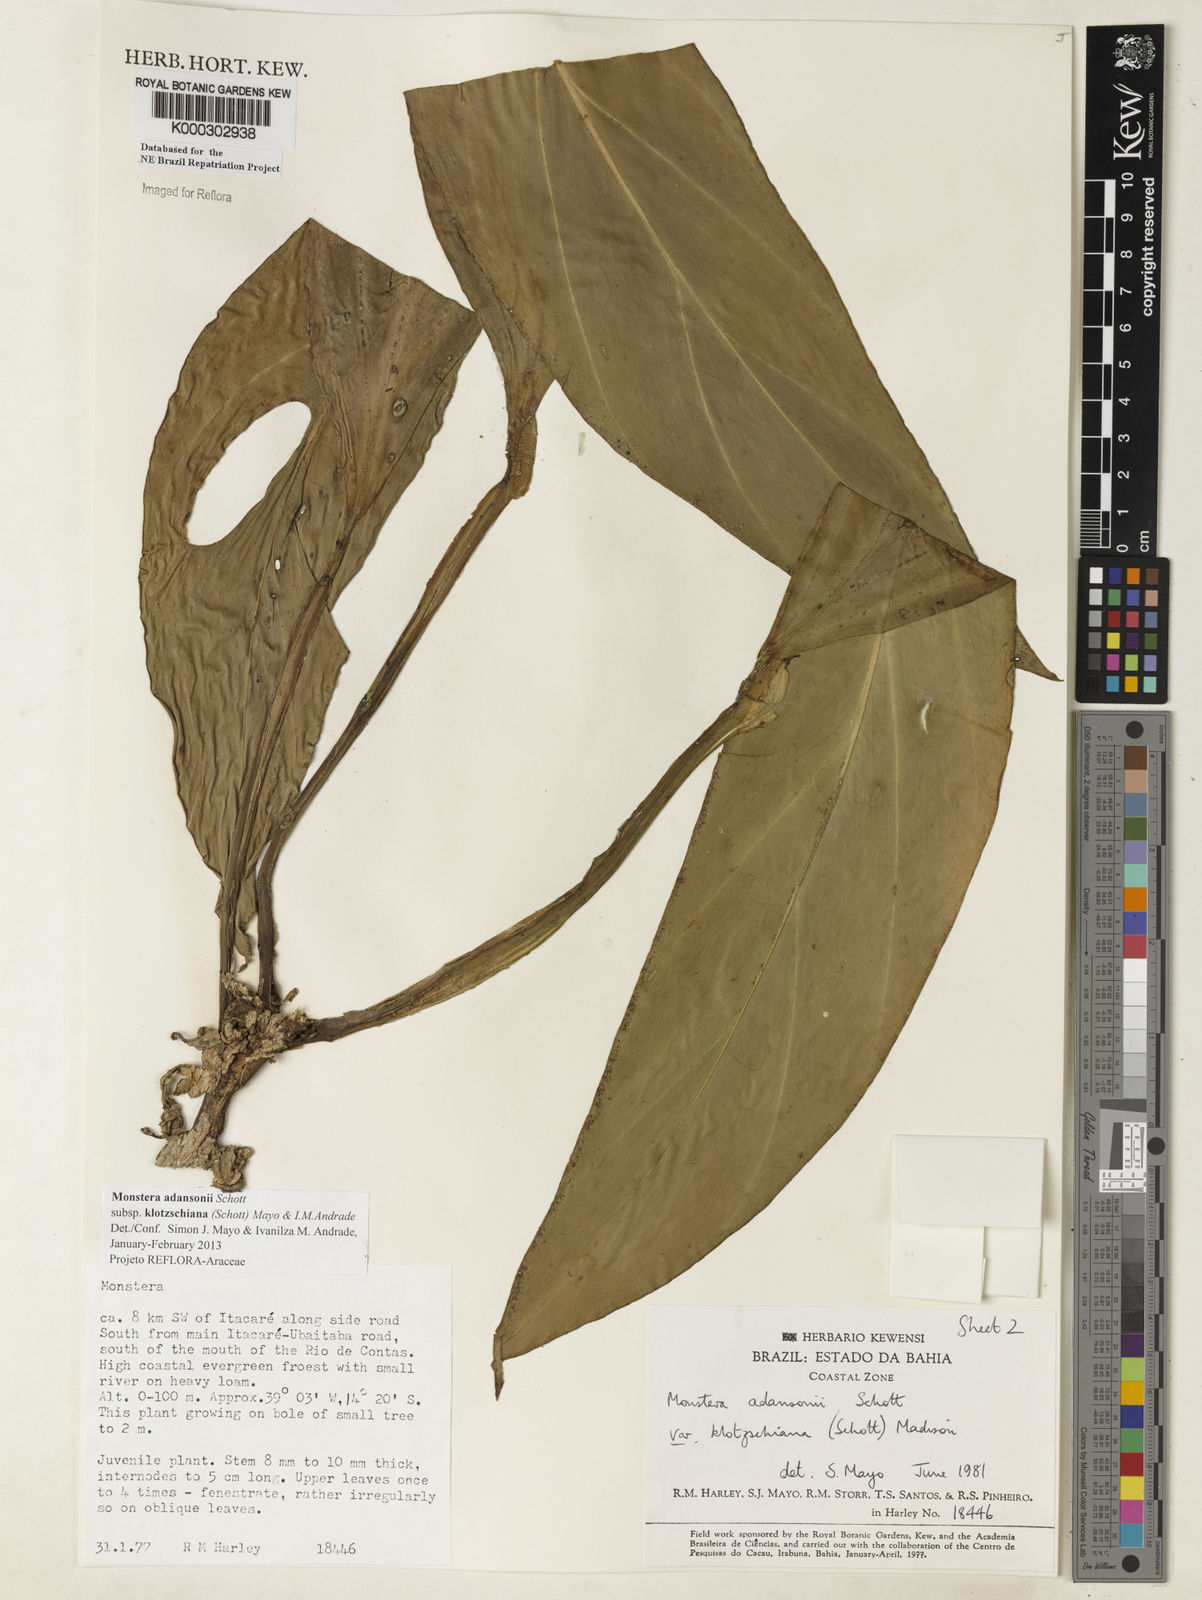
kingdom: Plantae
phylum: Tracheophyta
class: Liliopsida
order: Alismatales
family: Araceae
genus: Monstera
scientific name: Monstera adansonii
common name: Tarovine
